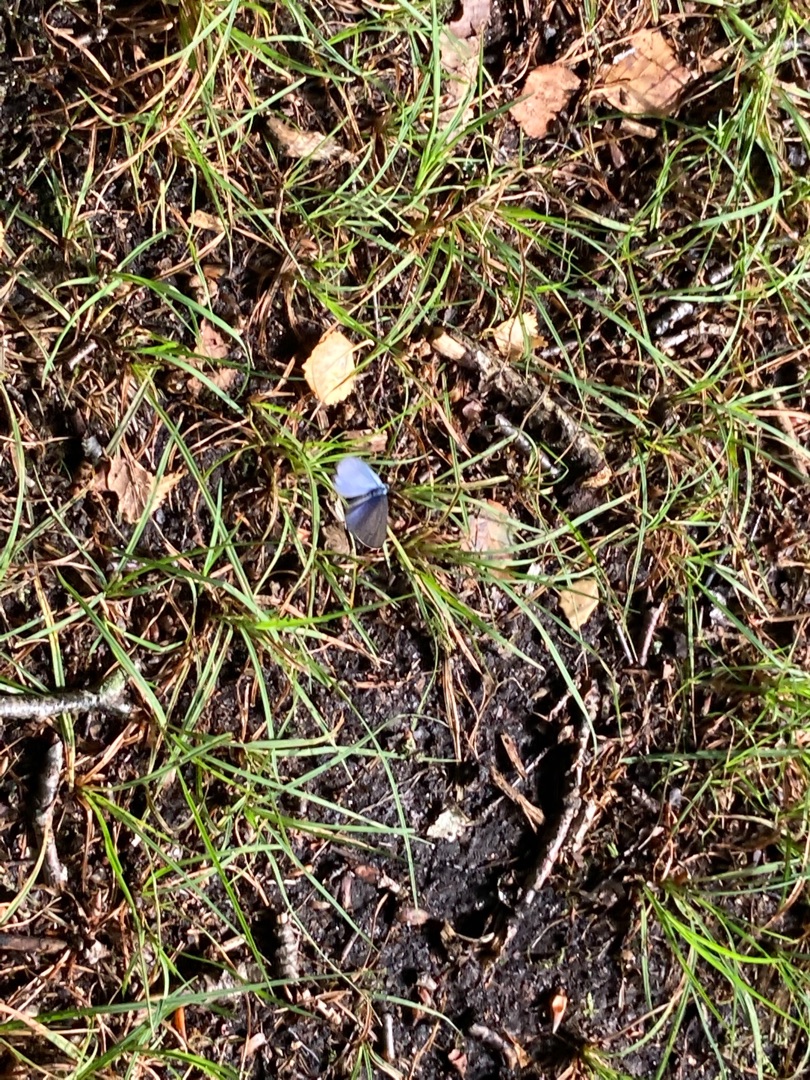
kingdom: Animalia
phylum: Arthropoda
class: Insecta
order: Lepidoptera
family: Lycaenidae
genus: Celastrina
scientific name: Celastrina argiolus
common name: Skovblåfugl
